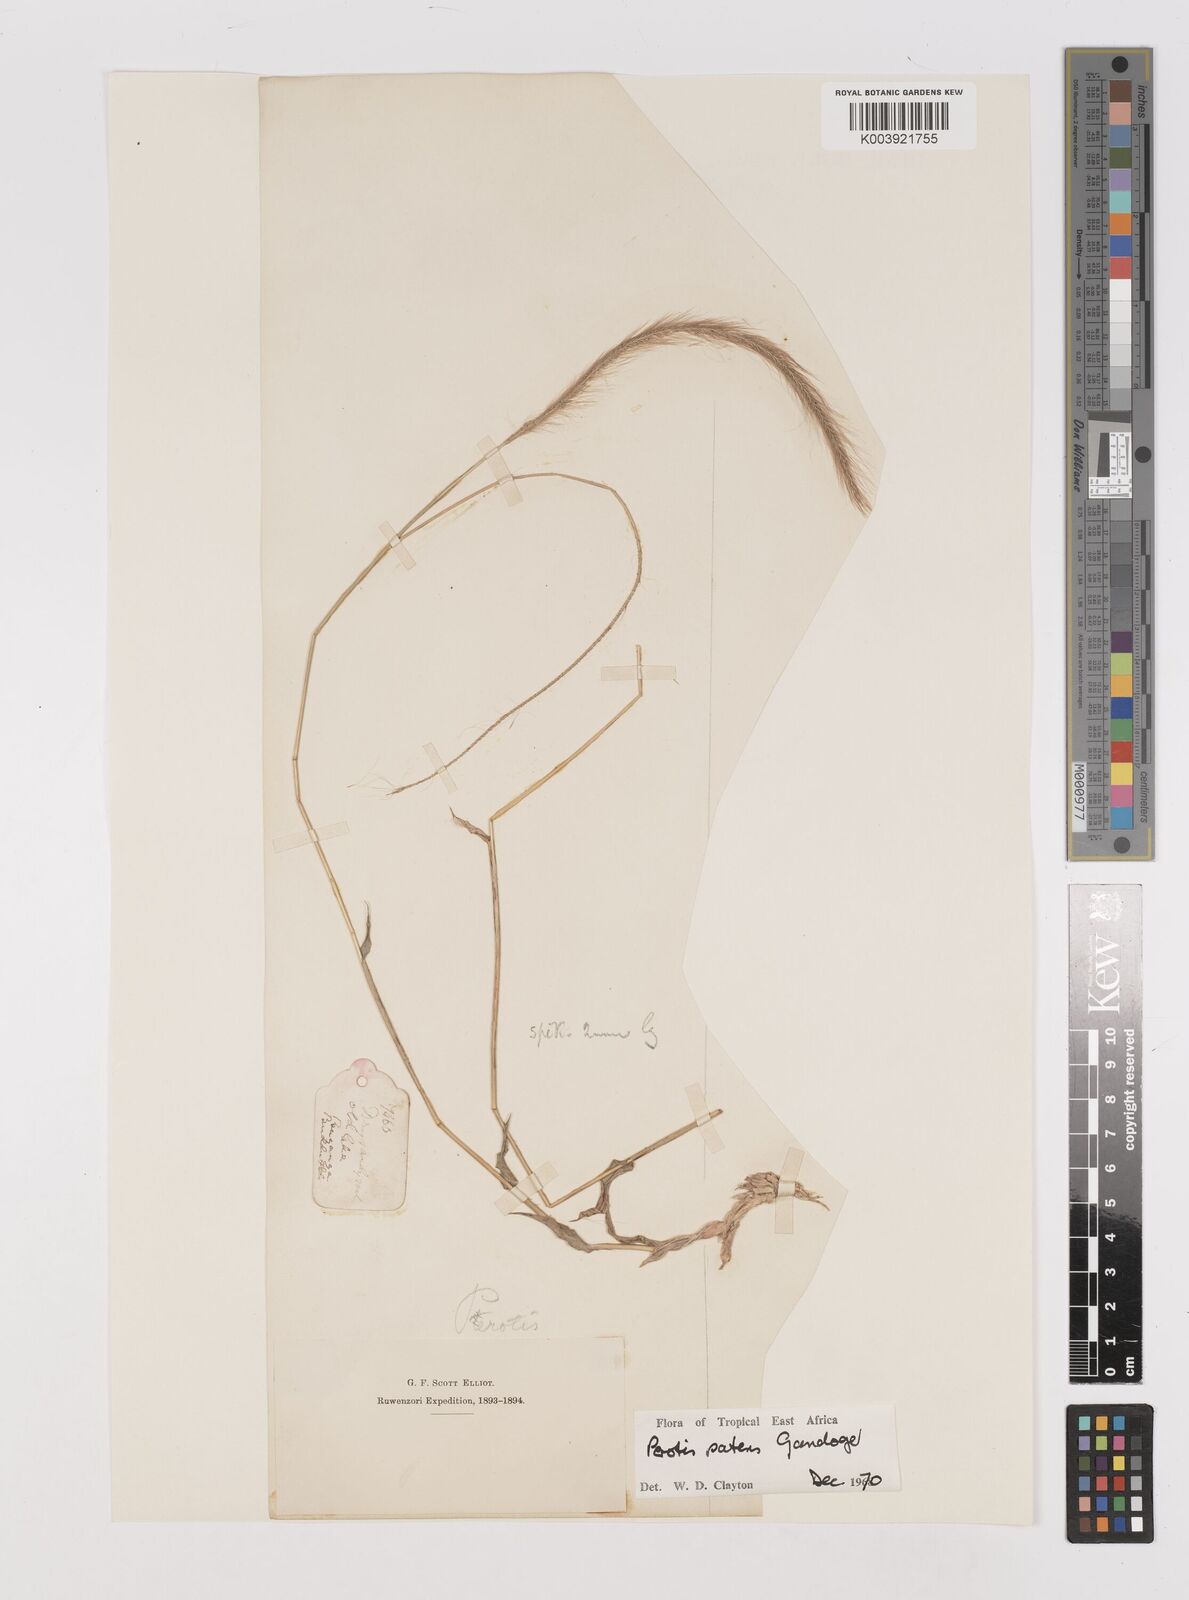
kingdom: Plantae
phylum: Tracheophyta
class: Liliopsida
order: Poales
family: Poaceae
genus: Perotis
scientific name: Perotis patens
